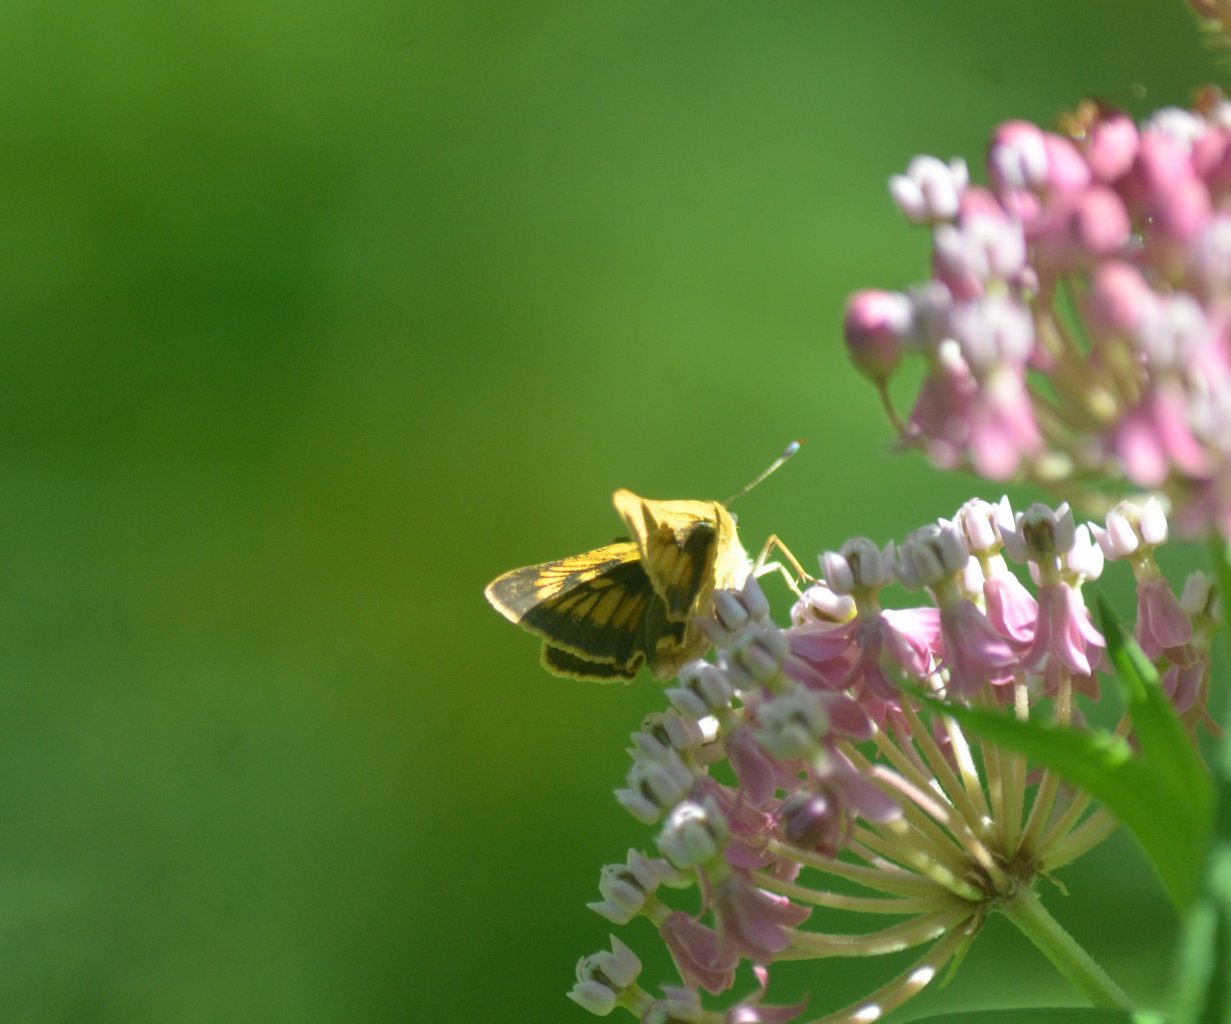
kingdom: Animalia
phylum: Arthropoda
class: Insecta
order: Lepidoptera
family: Hesperiidae
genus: Atrytone
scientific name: Atrytone delaware
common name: Delaware Skipper
